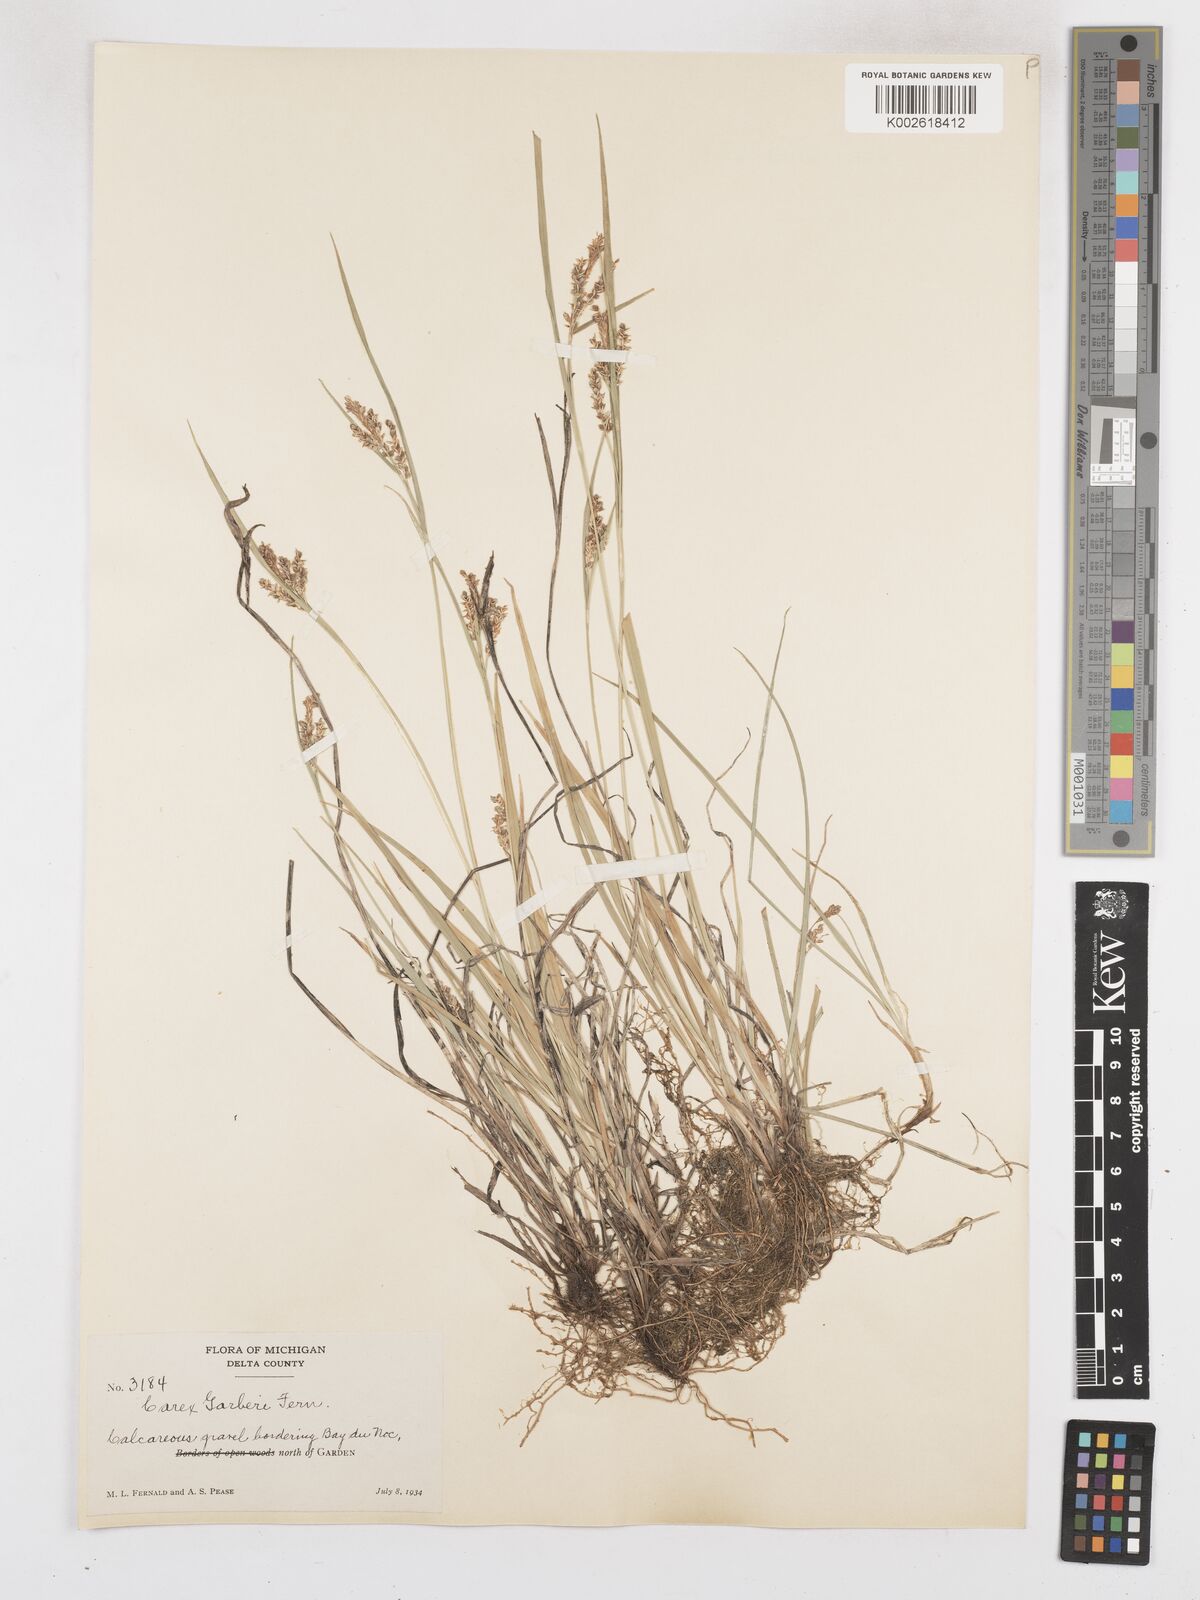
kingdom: Plantae
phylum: Tracheophyta
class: Liliopsida
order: Poales
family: Cyperaceae
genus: Carex
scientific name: Carex garberi
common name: Elk sedge
